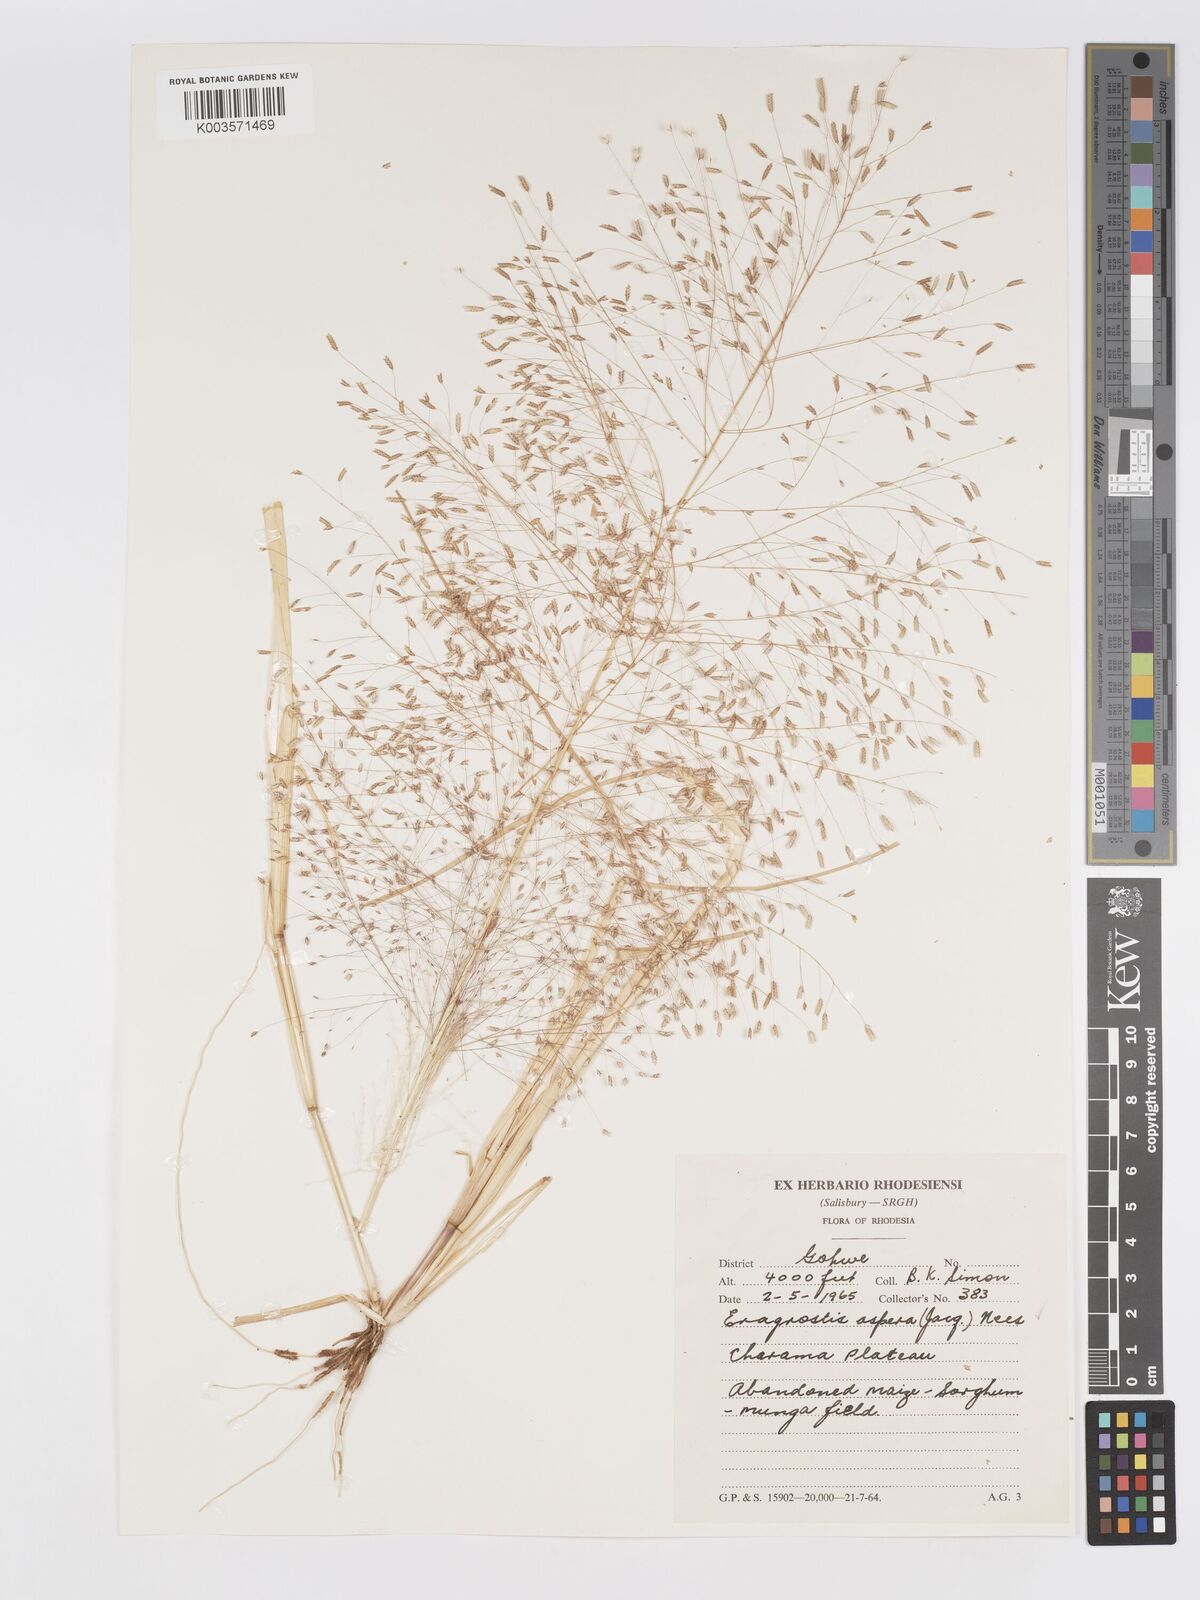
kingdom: Plantae
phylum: Tracheophyta
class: Liliopsida
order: Poales
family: Poaceae
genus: Eragrostis
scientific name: Eragrostis aspera
